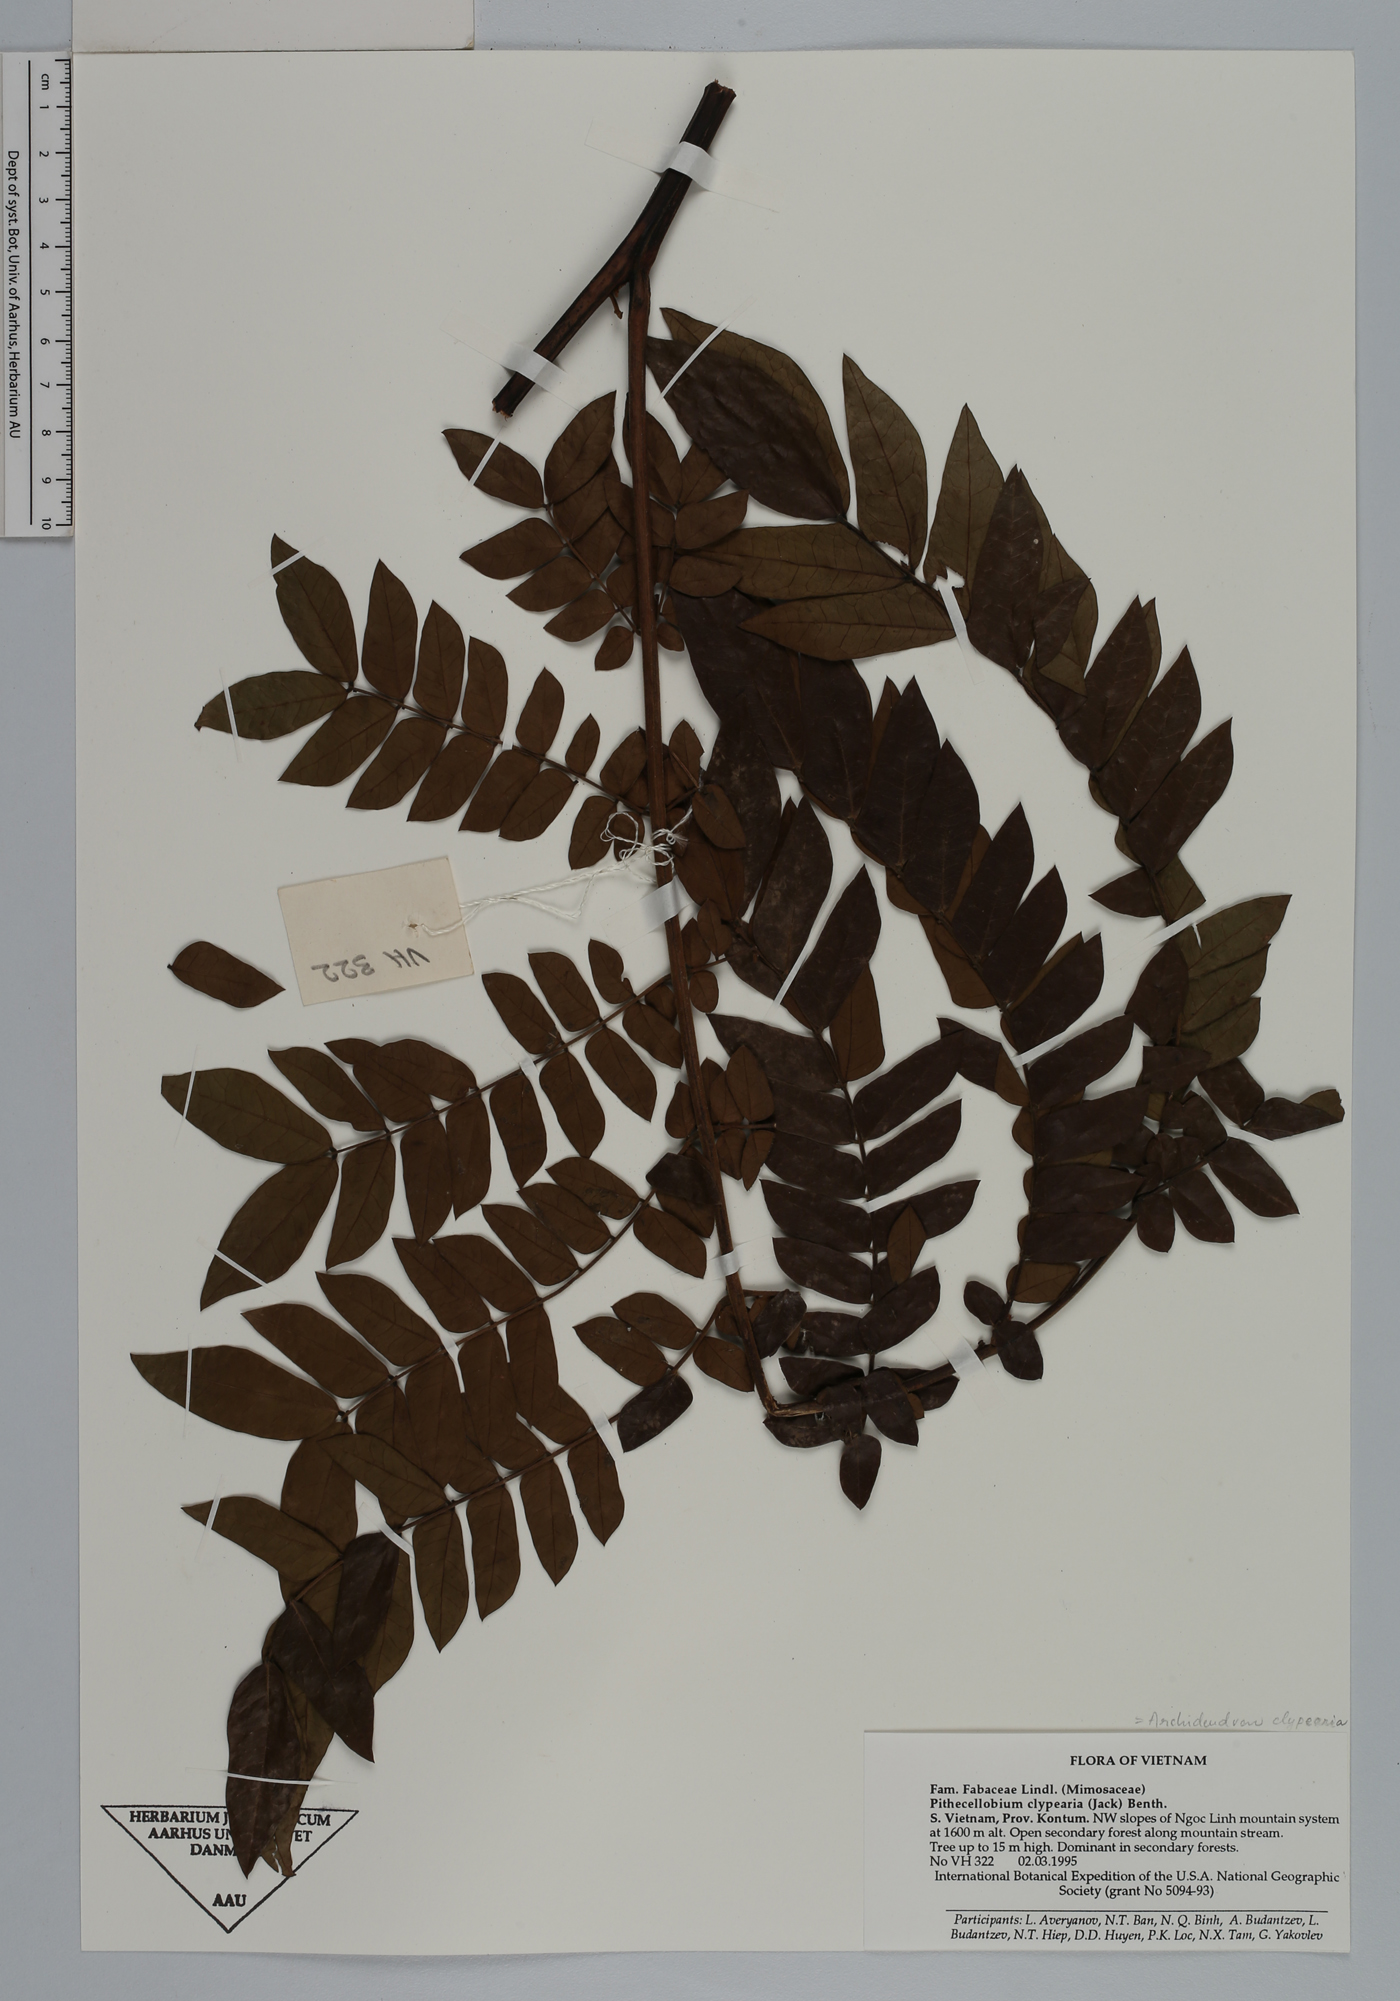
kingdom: Plantae
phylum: Tracheophyta
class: Magnoliopsida
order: Fabales
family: Fabaceae
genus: Archidendron
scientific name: Archidendron clypearia
